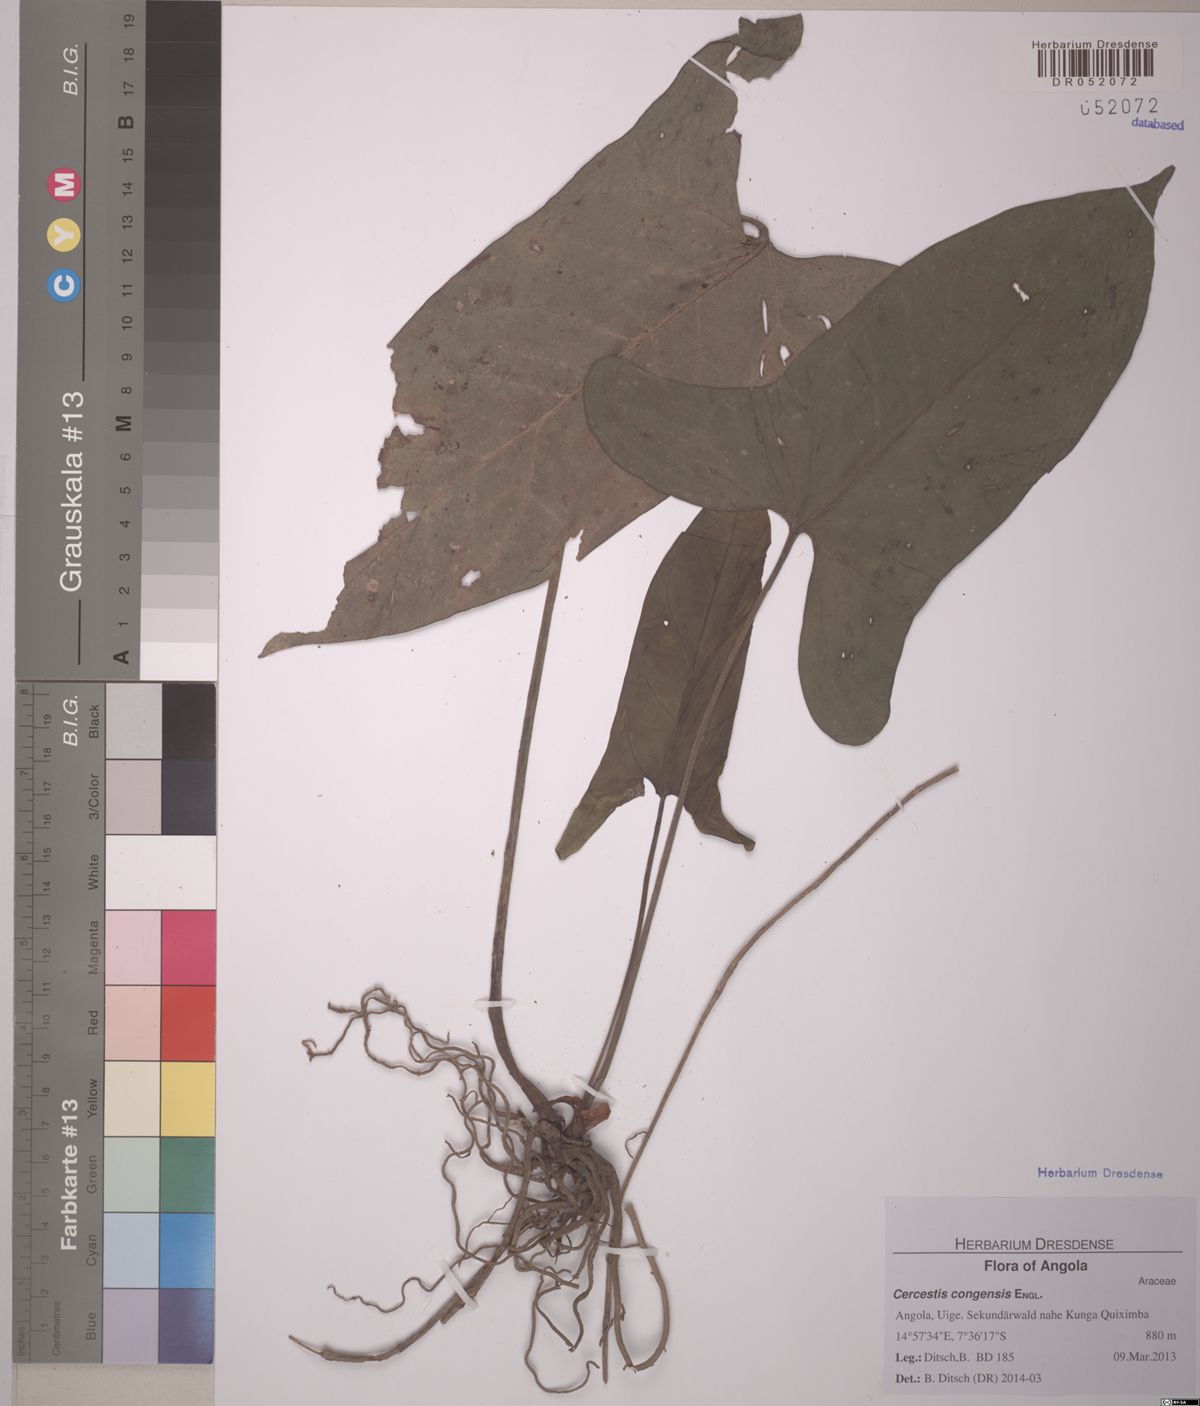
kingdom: Plantae
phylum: Tracheophyta
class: Liliopsida
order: Alismatales
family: Araceae
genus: Cercestis
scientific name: Cercestis congensis
